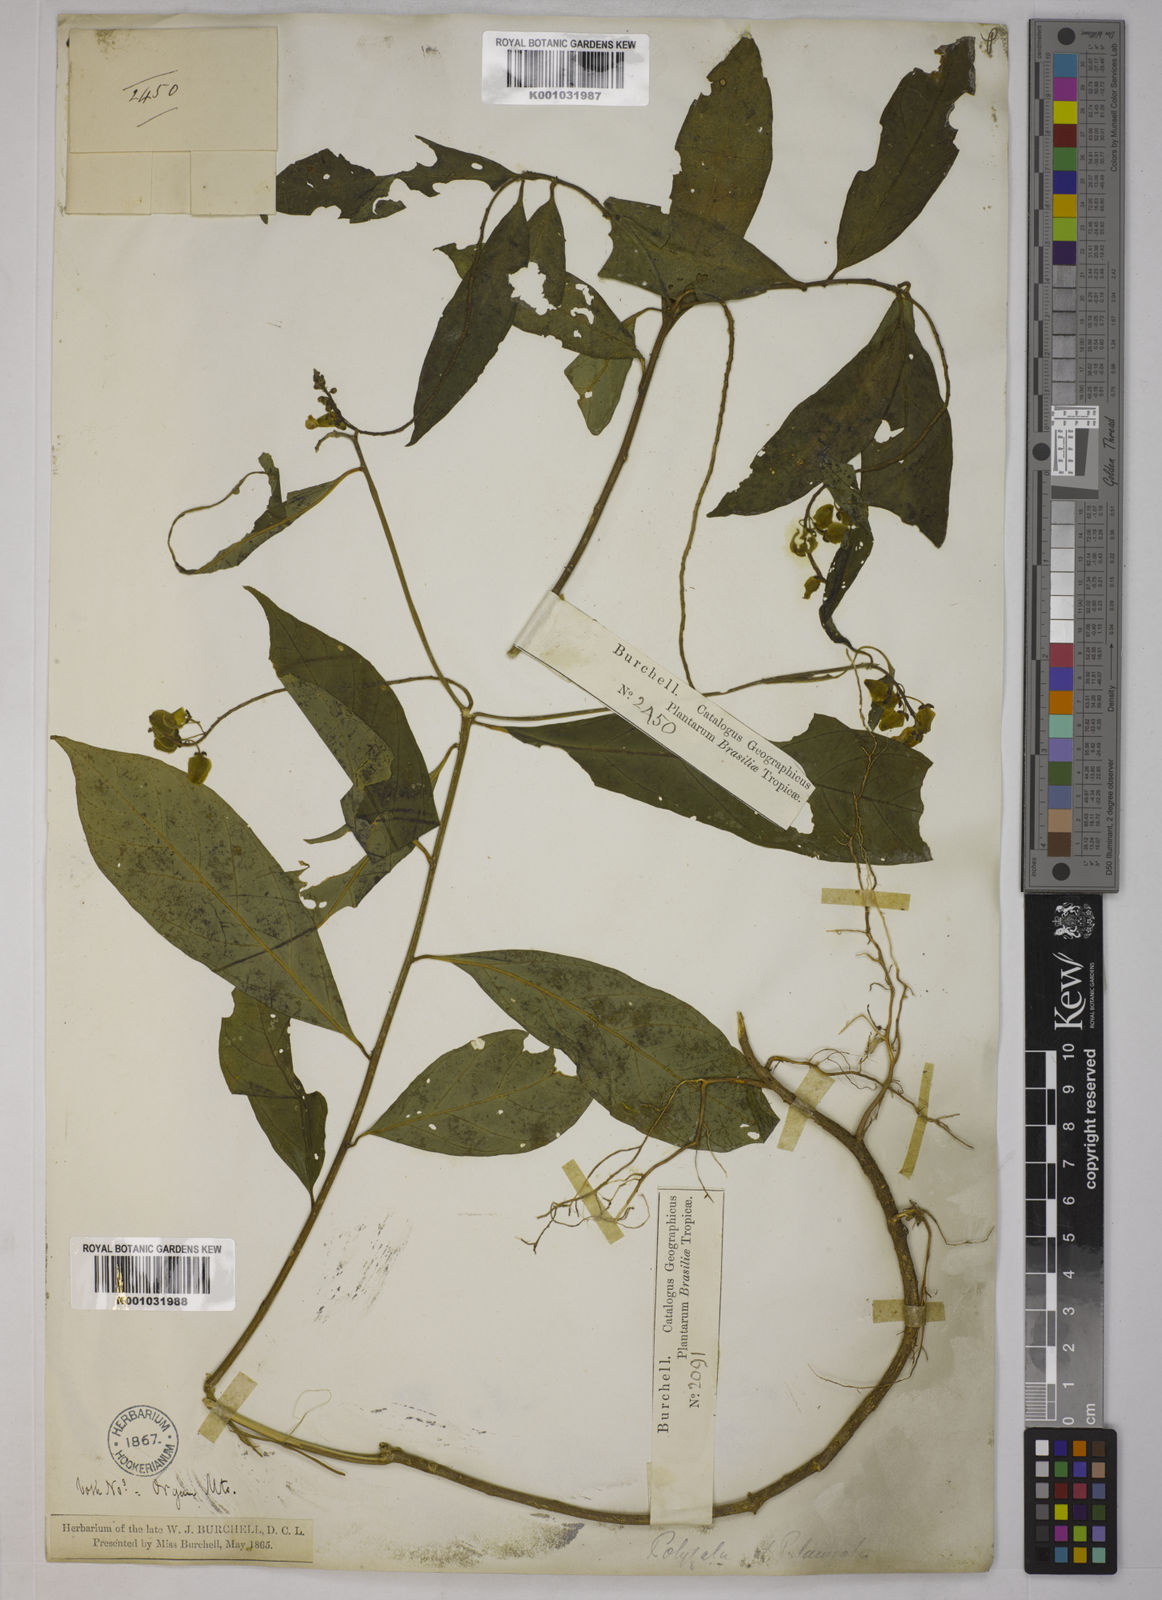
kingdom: Plantae
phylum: Tracheophyta
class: Magnoliopsida
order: Fabales
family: Polygalaceae
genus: Caamembeca
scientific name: Caamembeca salicifolia
